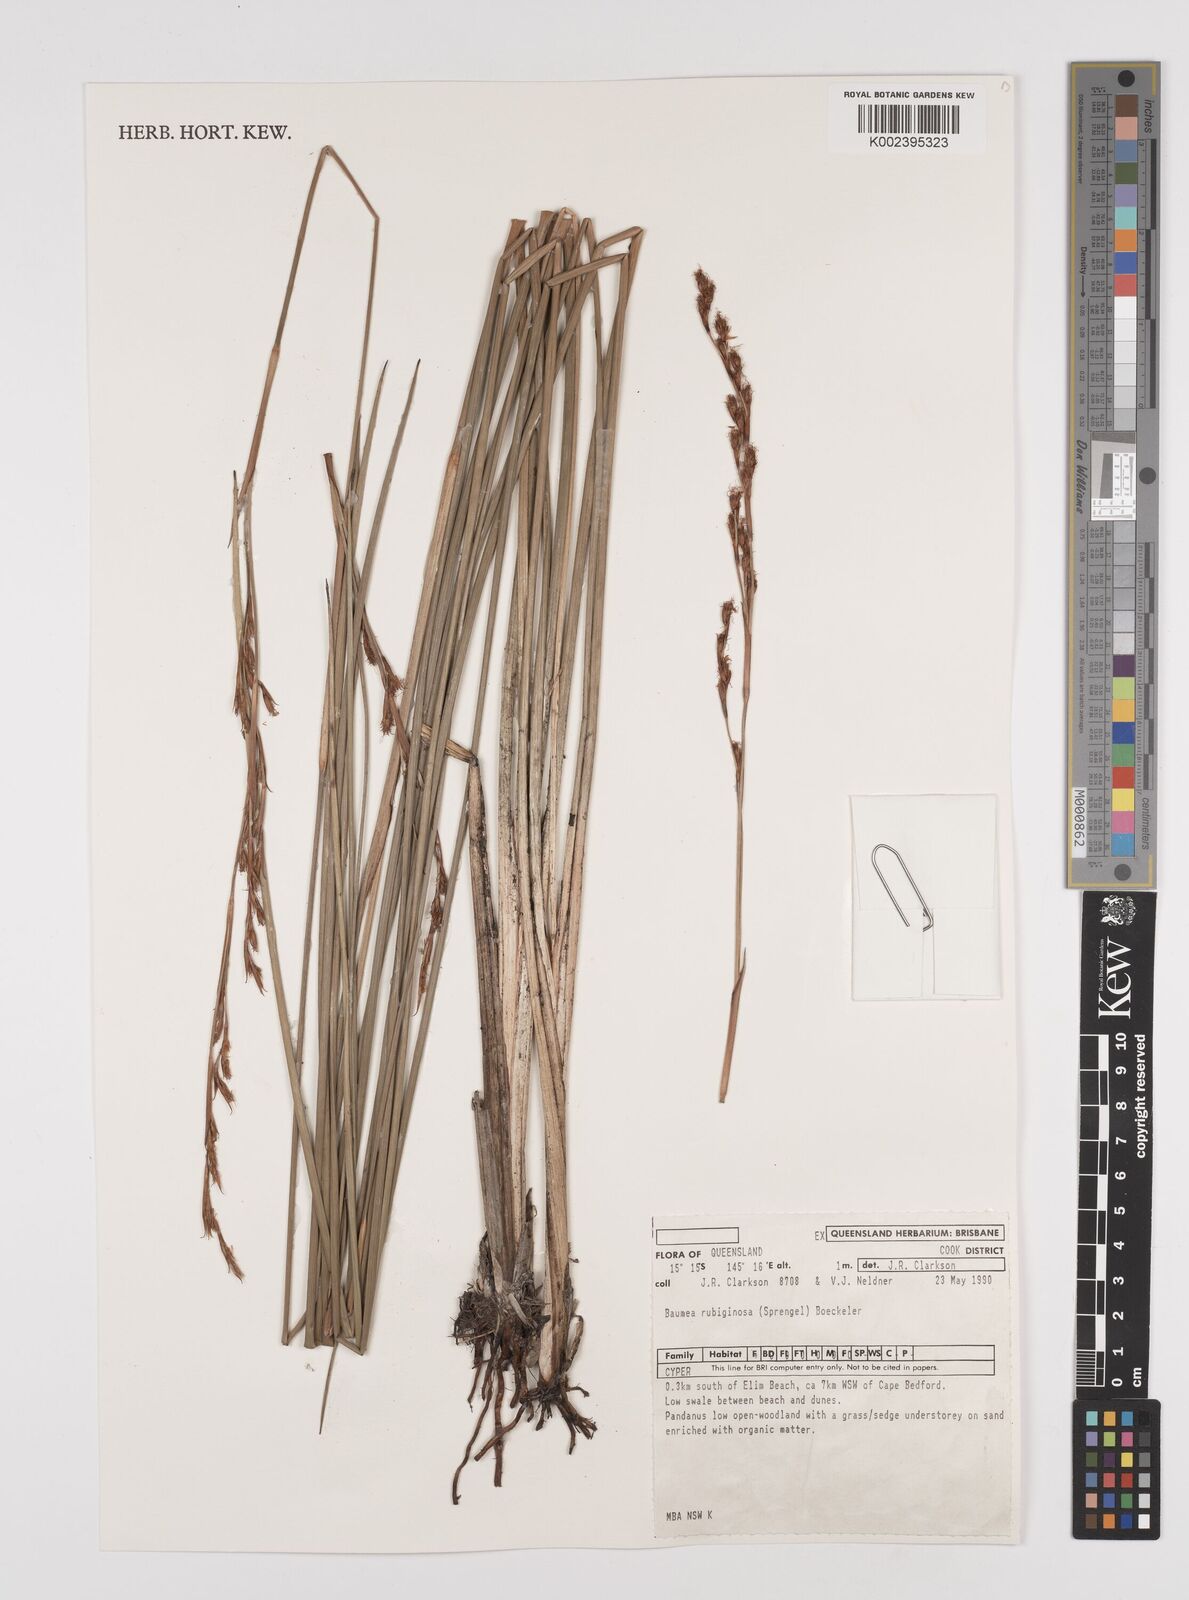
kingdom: Plantae
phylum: Tracheophyta
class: Liliopsida
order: Poales
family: Cyperaceae
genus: Machaerina
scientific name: Machaerina rubiginosa
